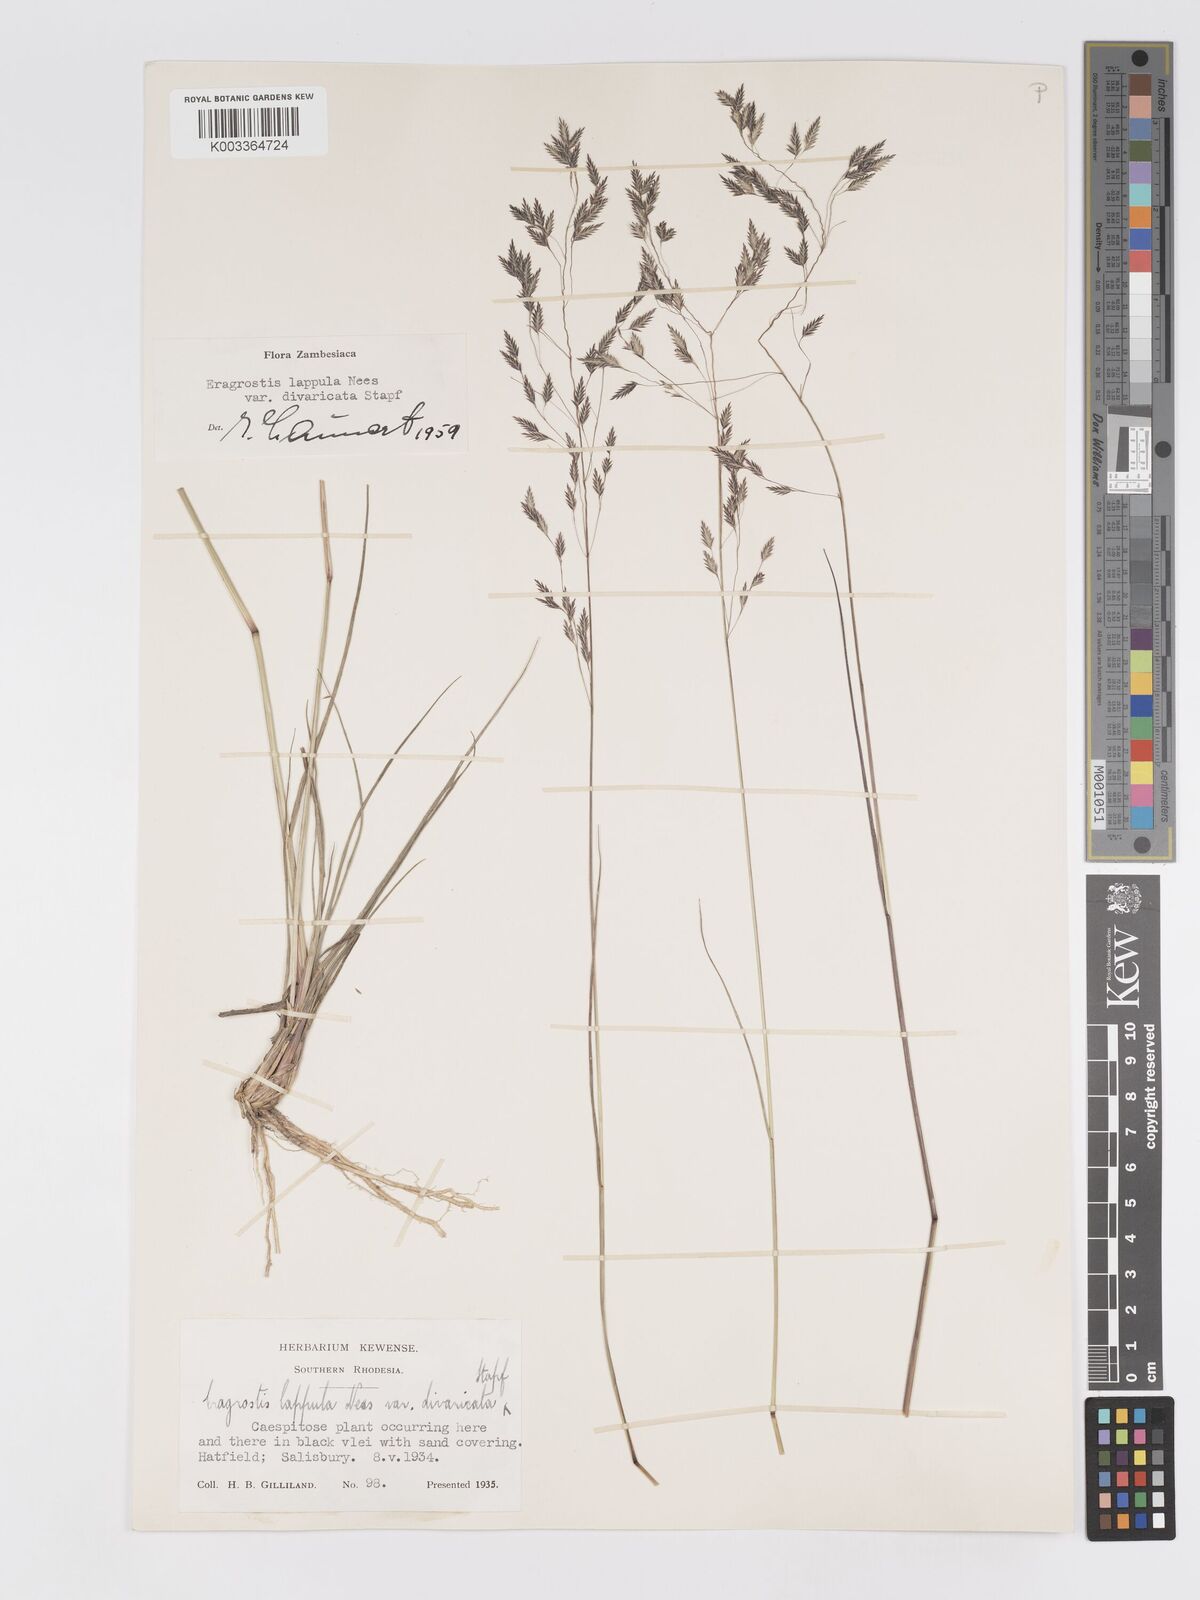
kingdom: Plantae
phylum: Tracheophyta
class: Liliopsida
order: Poales
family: Poaceae
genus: Eragrostis
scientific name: Eragrostis lappula
